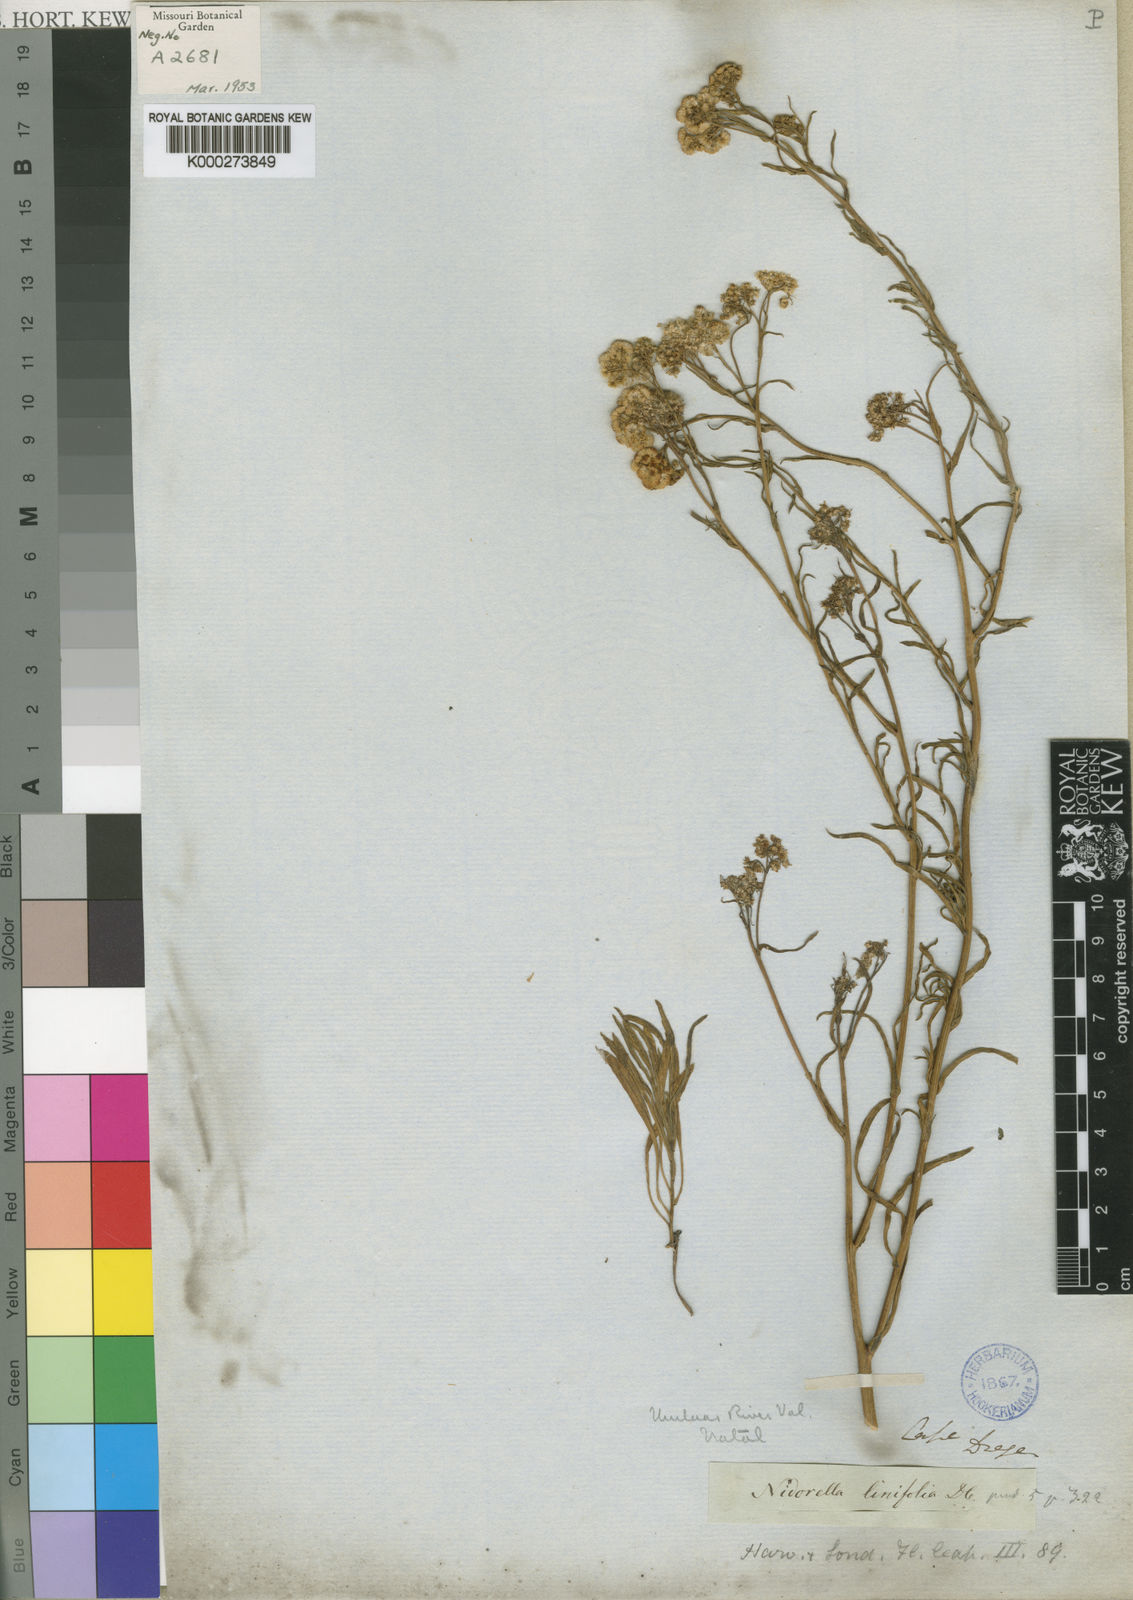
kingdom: Plantae
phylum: Tracheophyta
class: Magnoliopsida
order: Asterales
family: Asteraceae
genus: Nidorella
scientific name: Nidorella linifolia
